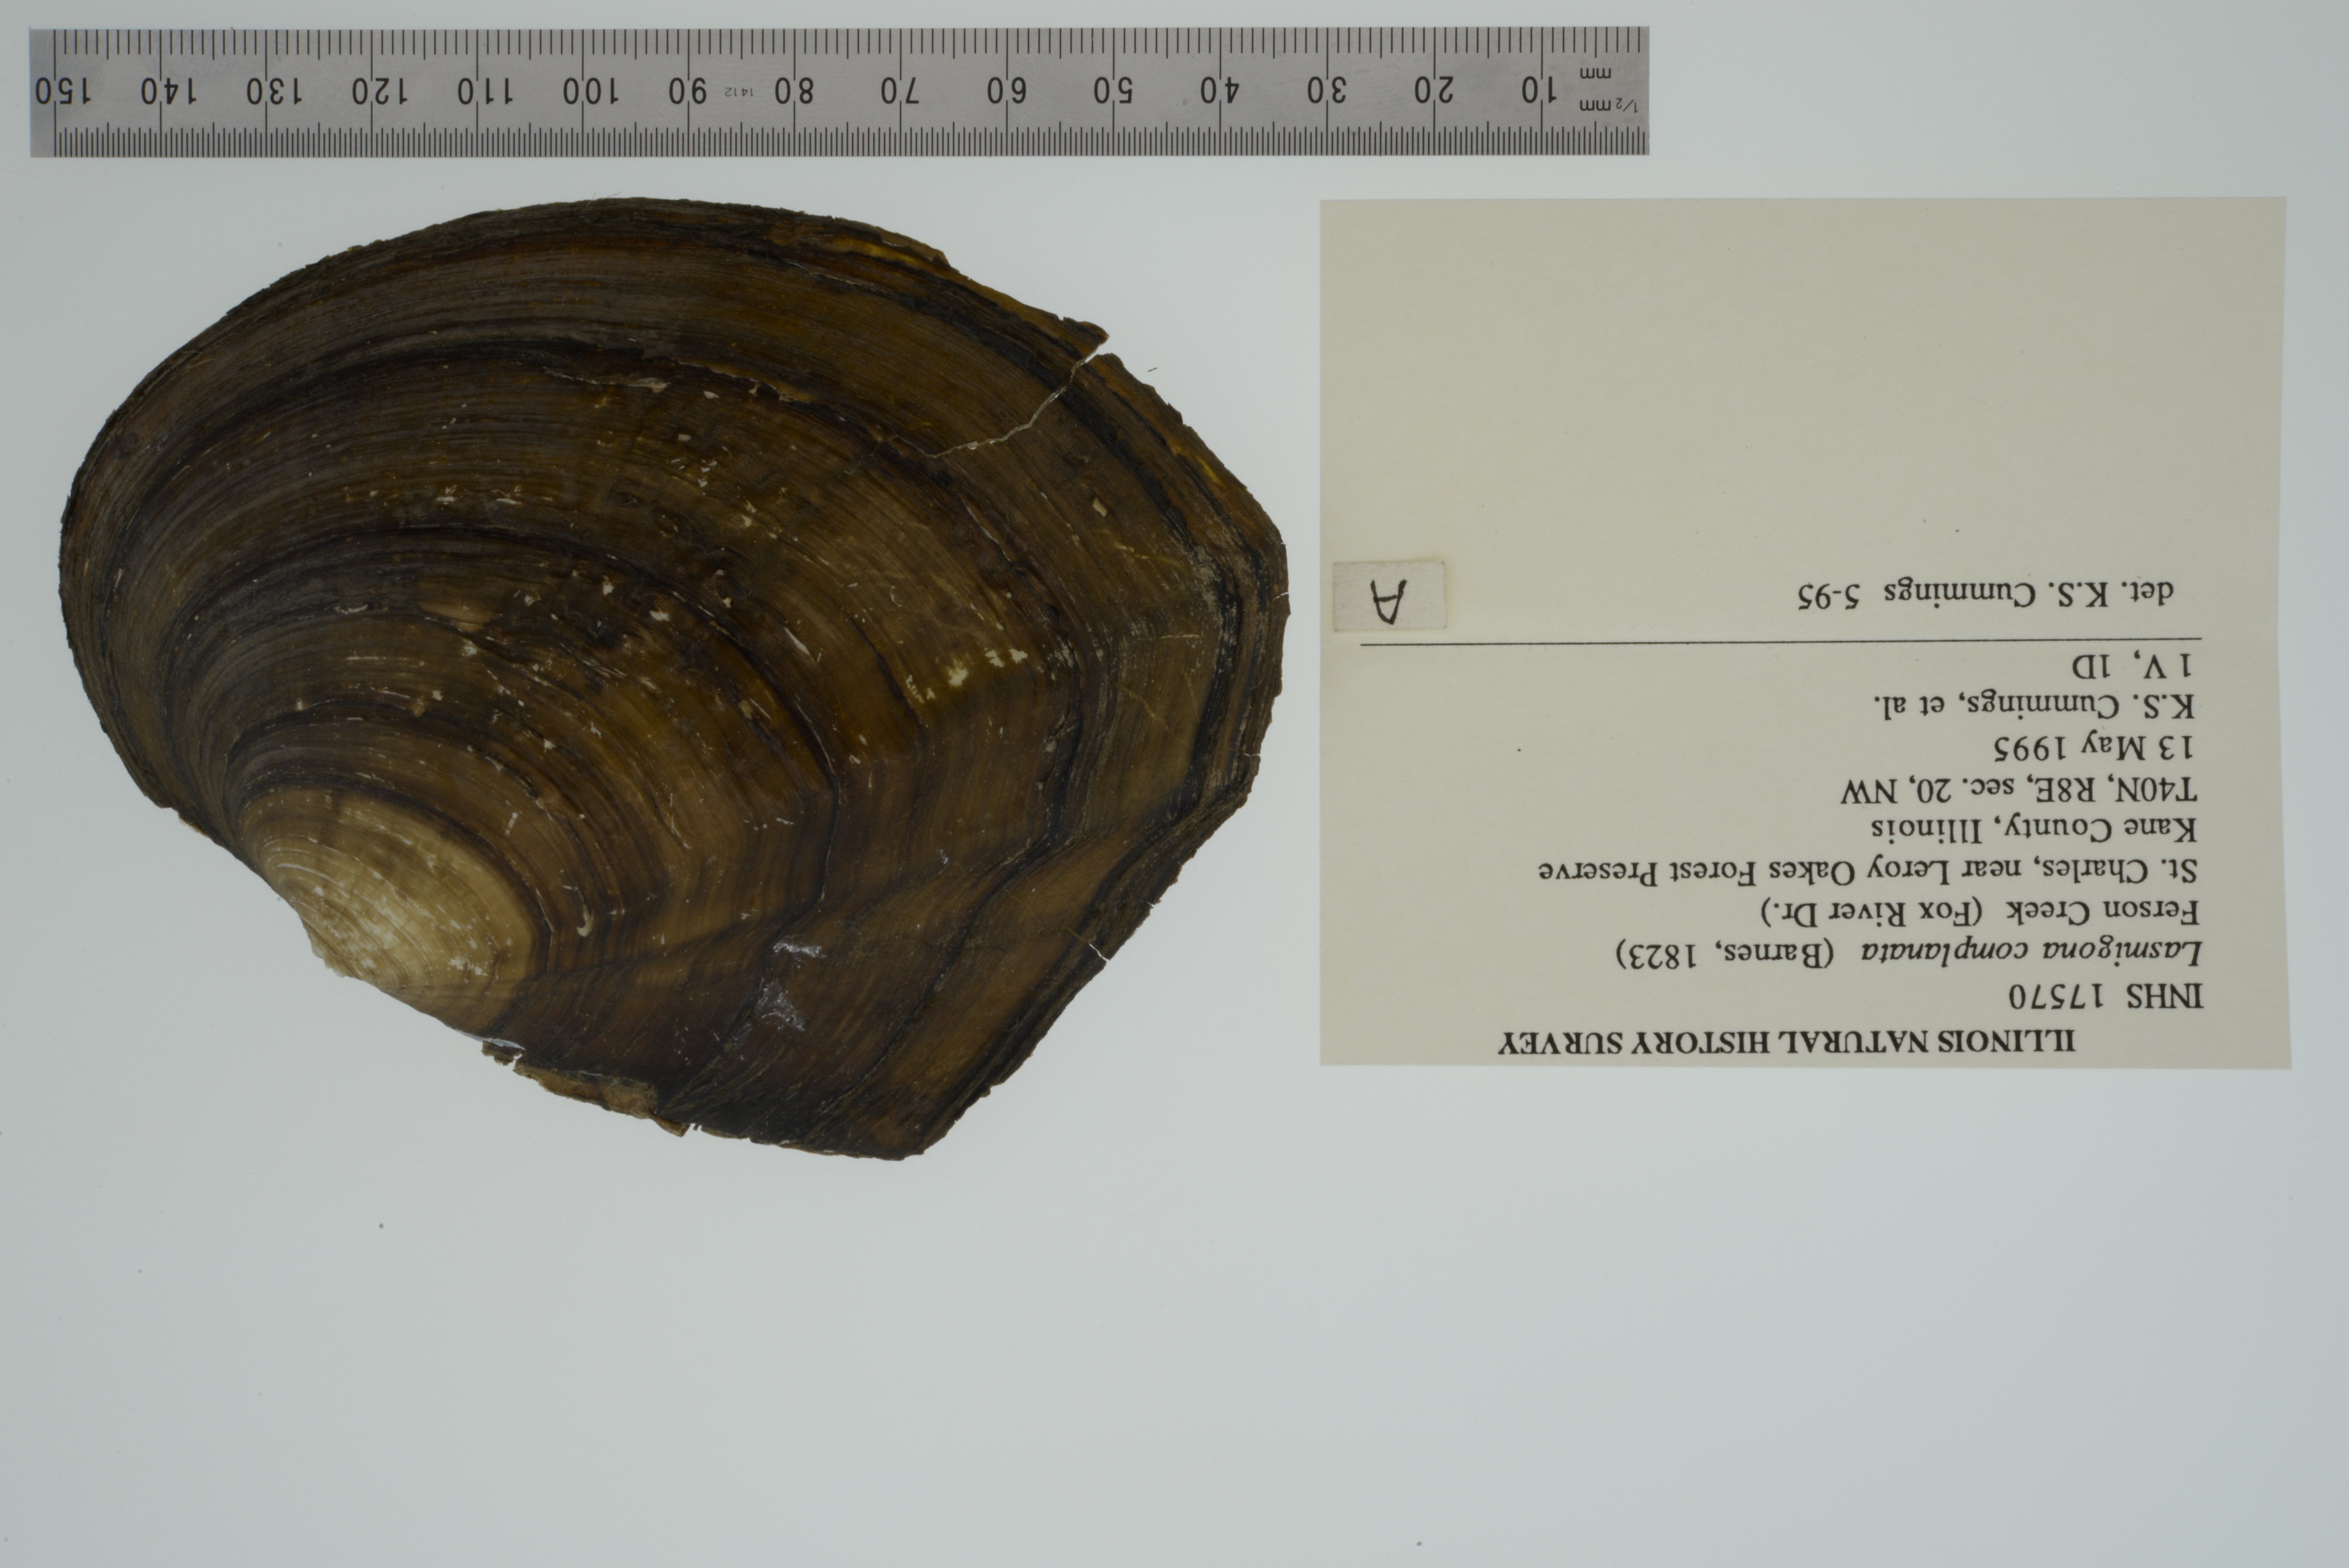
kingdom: Animalia
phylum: Mollusca
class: Bivalvia
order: Unionida
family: Unionidae
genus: Lasmigona
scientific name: Lasmigona complanata
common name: White heelsplitter
